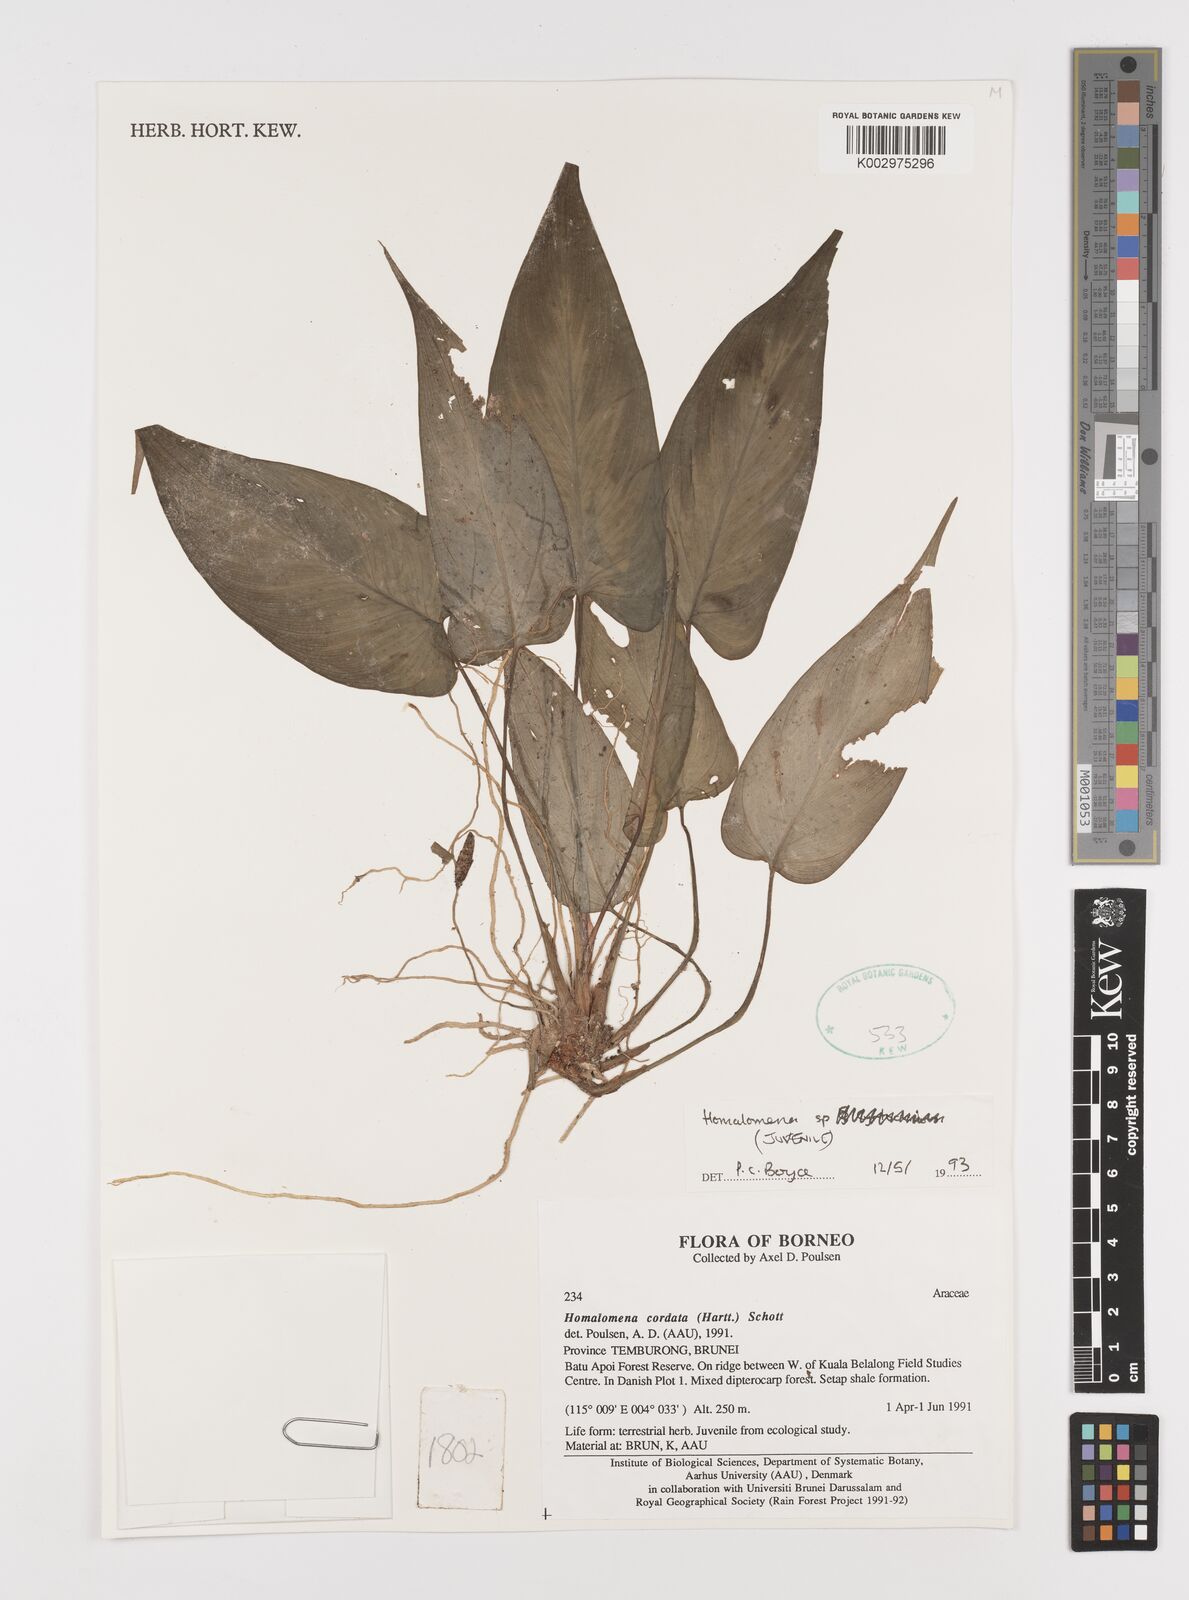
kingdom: Plantae
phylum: Tracheophyta
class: Liliopsida
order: Alismatales
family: Araceae
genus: Homalomena
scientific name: Homalomena cordata
